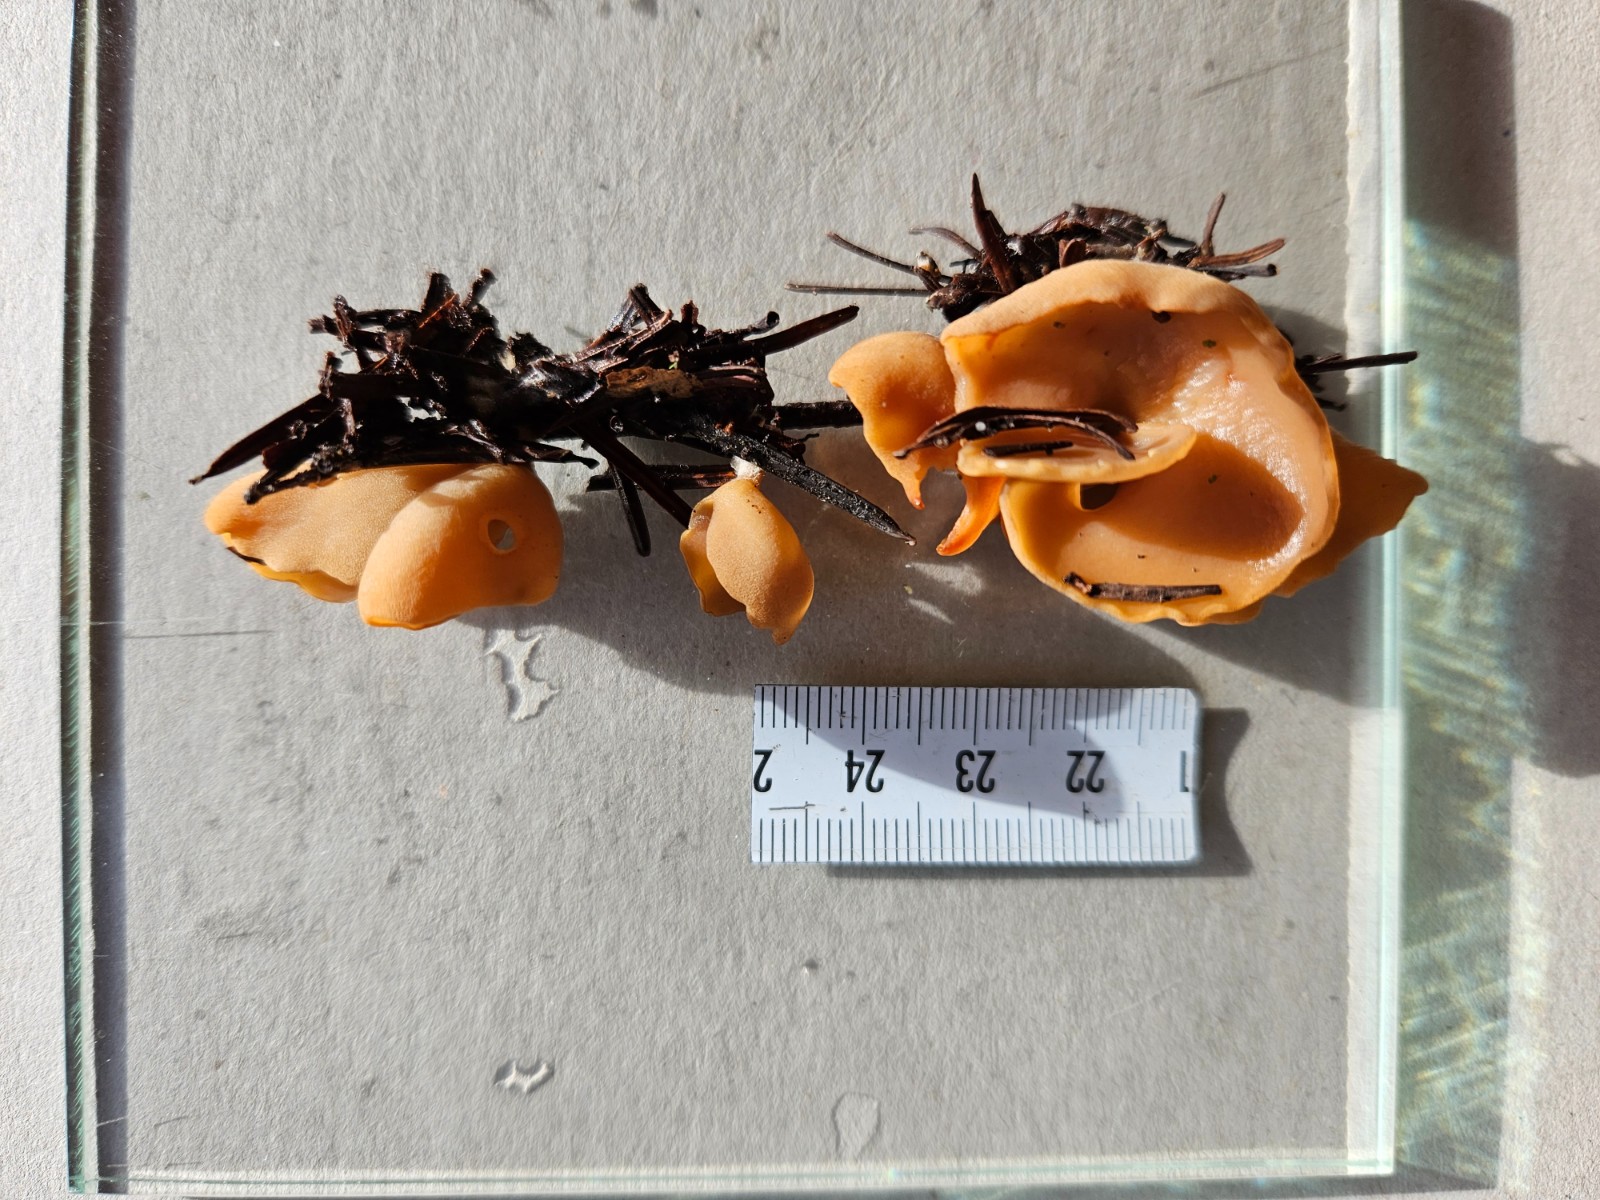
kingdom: Fungi
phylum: Ascomycota
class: Pezizomycetes
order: Pezizales
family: Otideaceae
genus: Otidea
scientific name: Otidea
